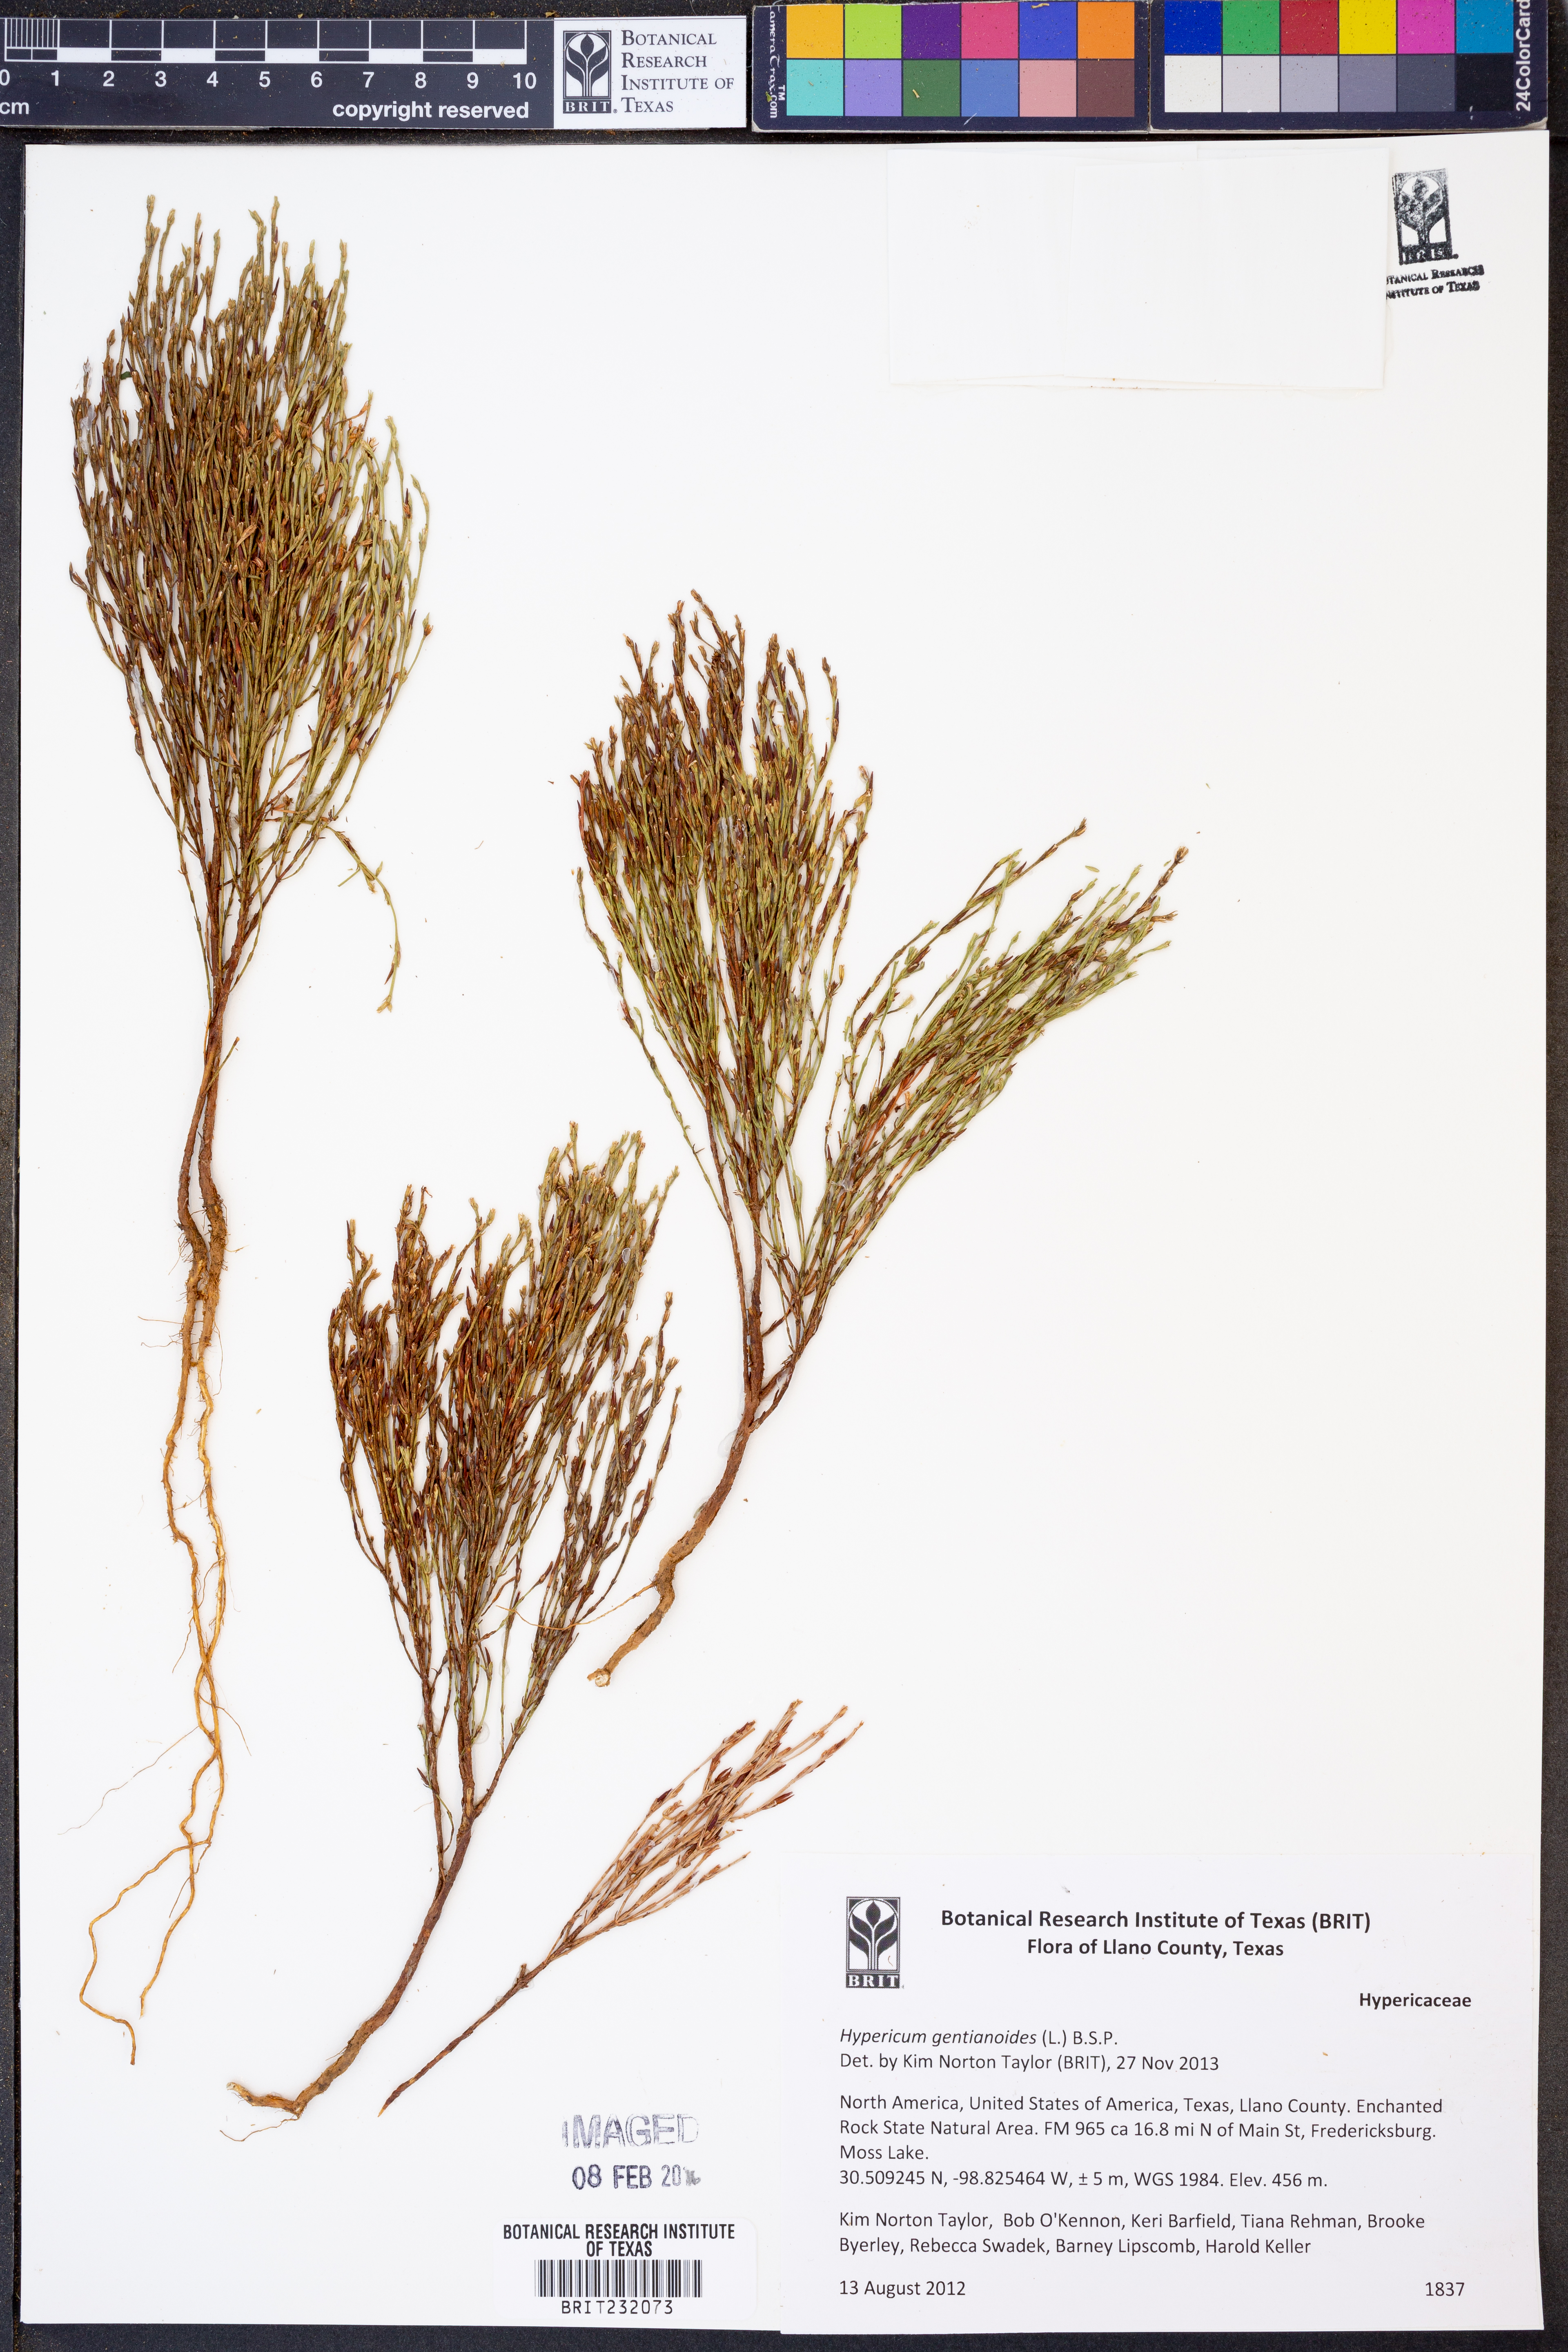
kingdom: Plantae
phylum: Tracheophyta
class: Magnoliopsida
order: Malpighiales
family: Hypericaceae
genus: Hypericum
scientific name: Hypericum gentianoides
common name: Gentian-leaved st. john's-wort
